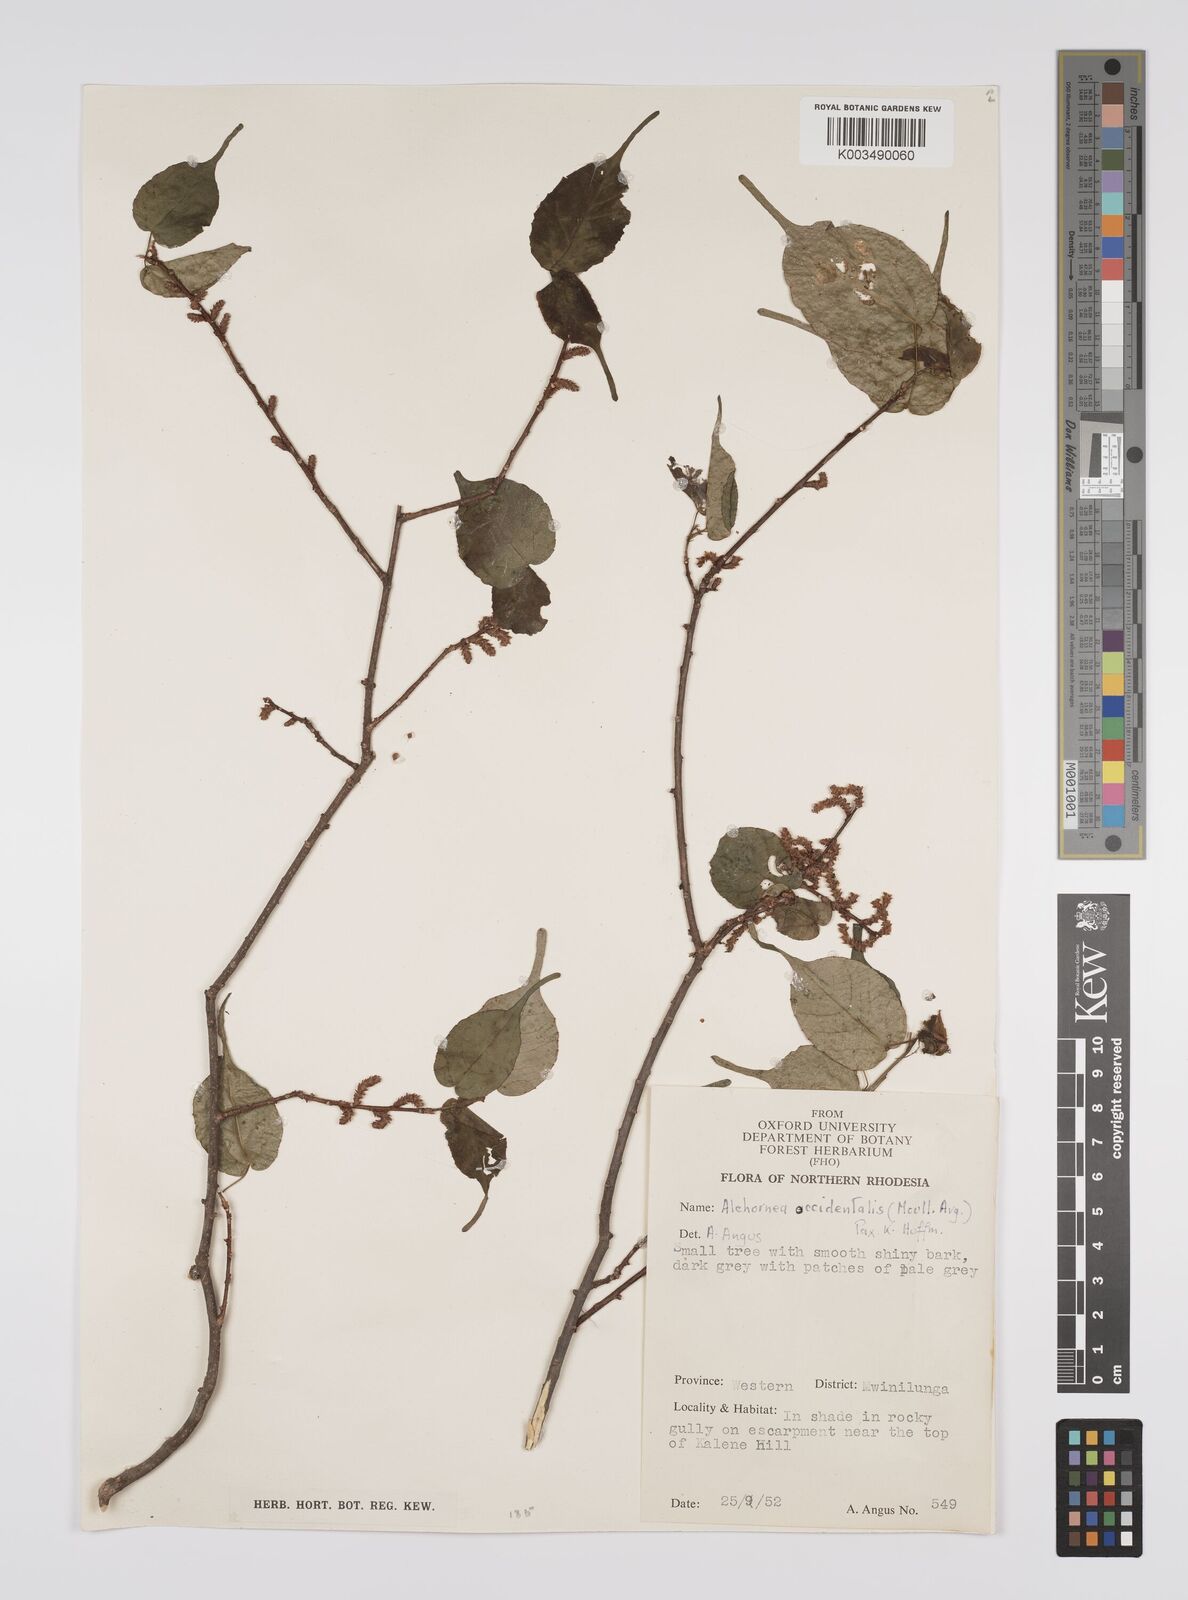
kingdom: Plantae
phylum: Tracheophyta
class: Magnoliopsida
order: Malpighiales
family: Euphorbiaceae
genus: Alchornea
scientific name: Alchornea occidentalis
